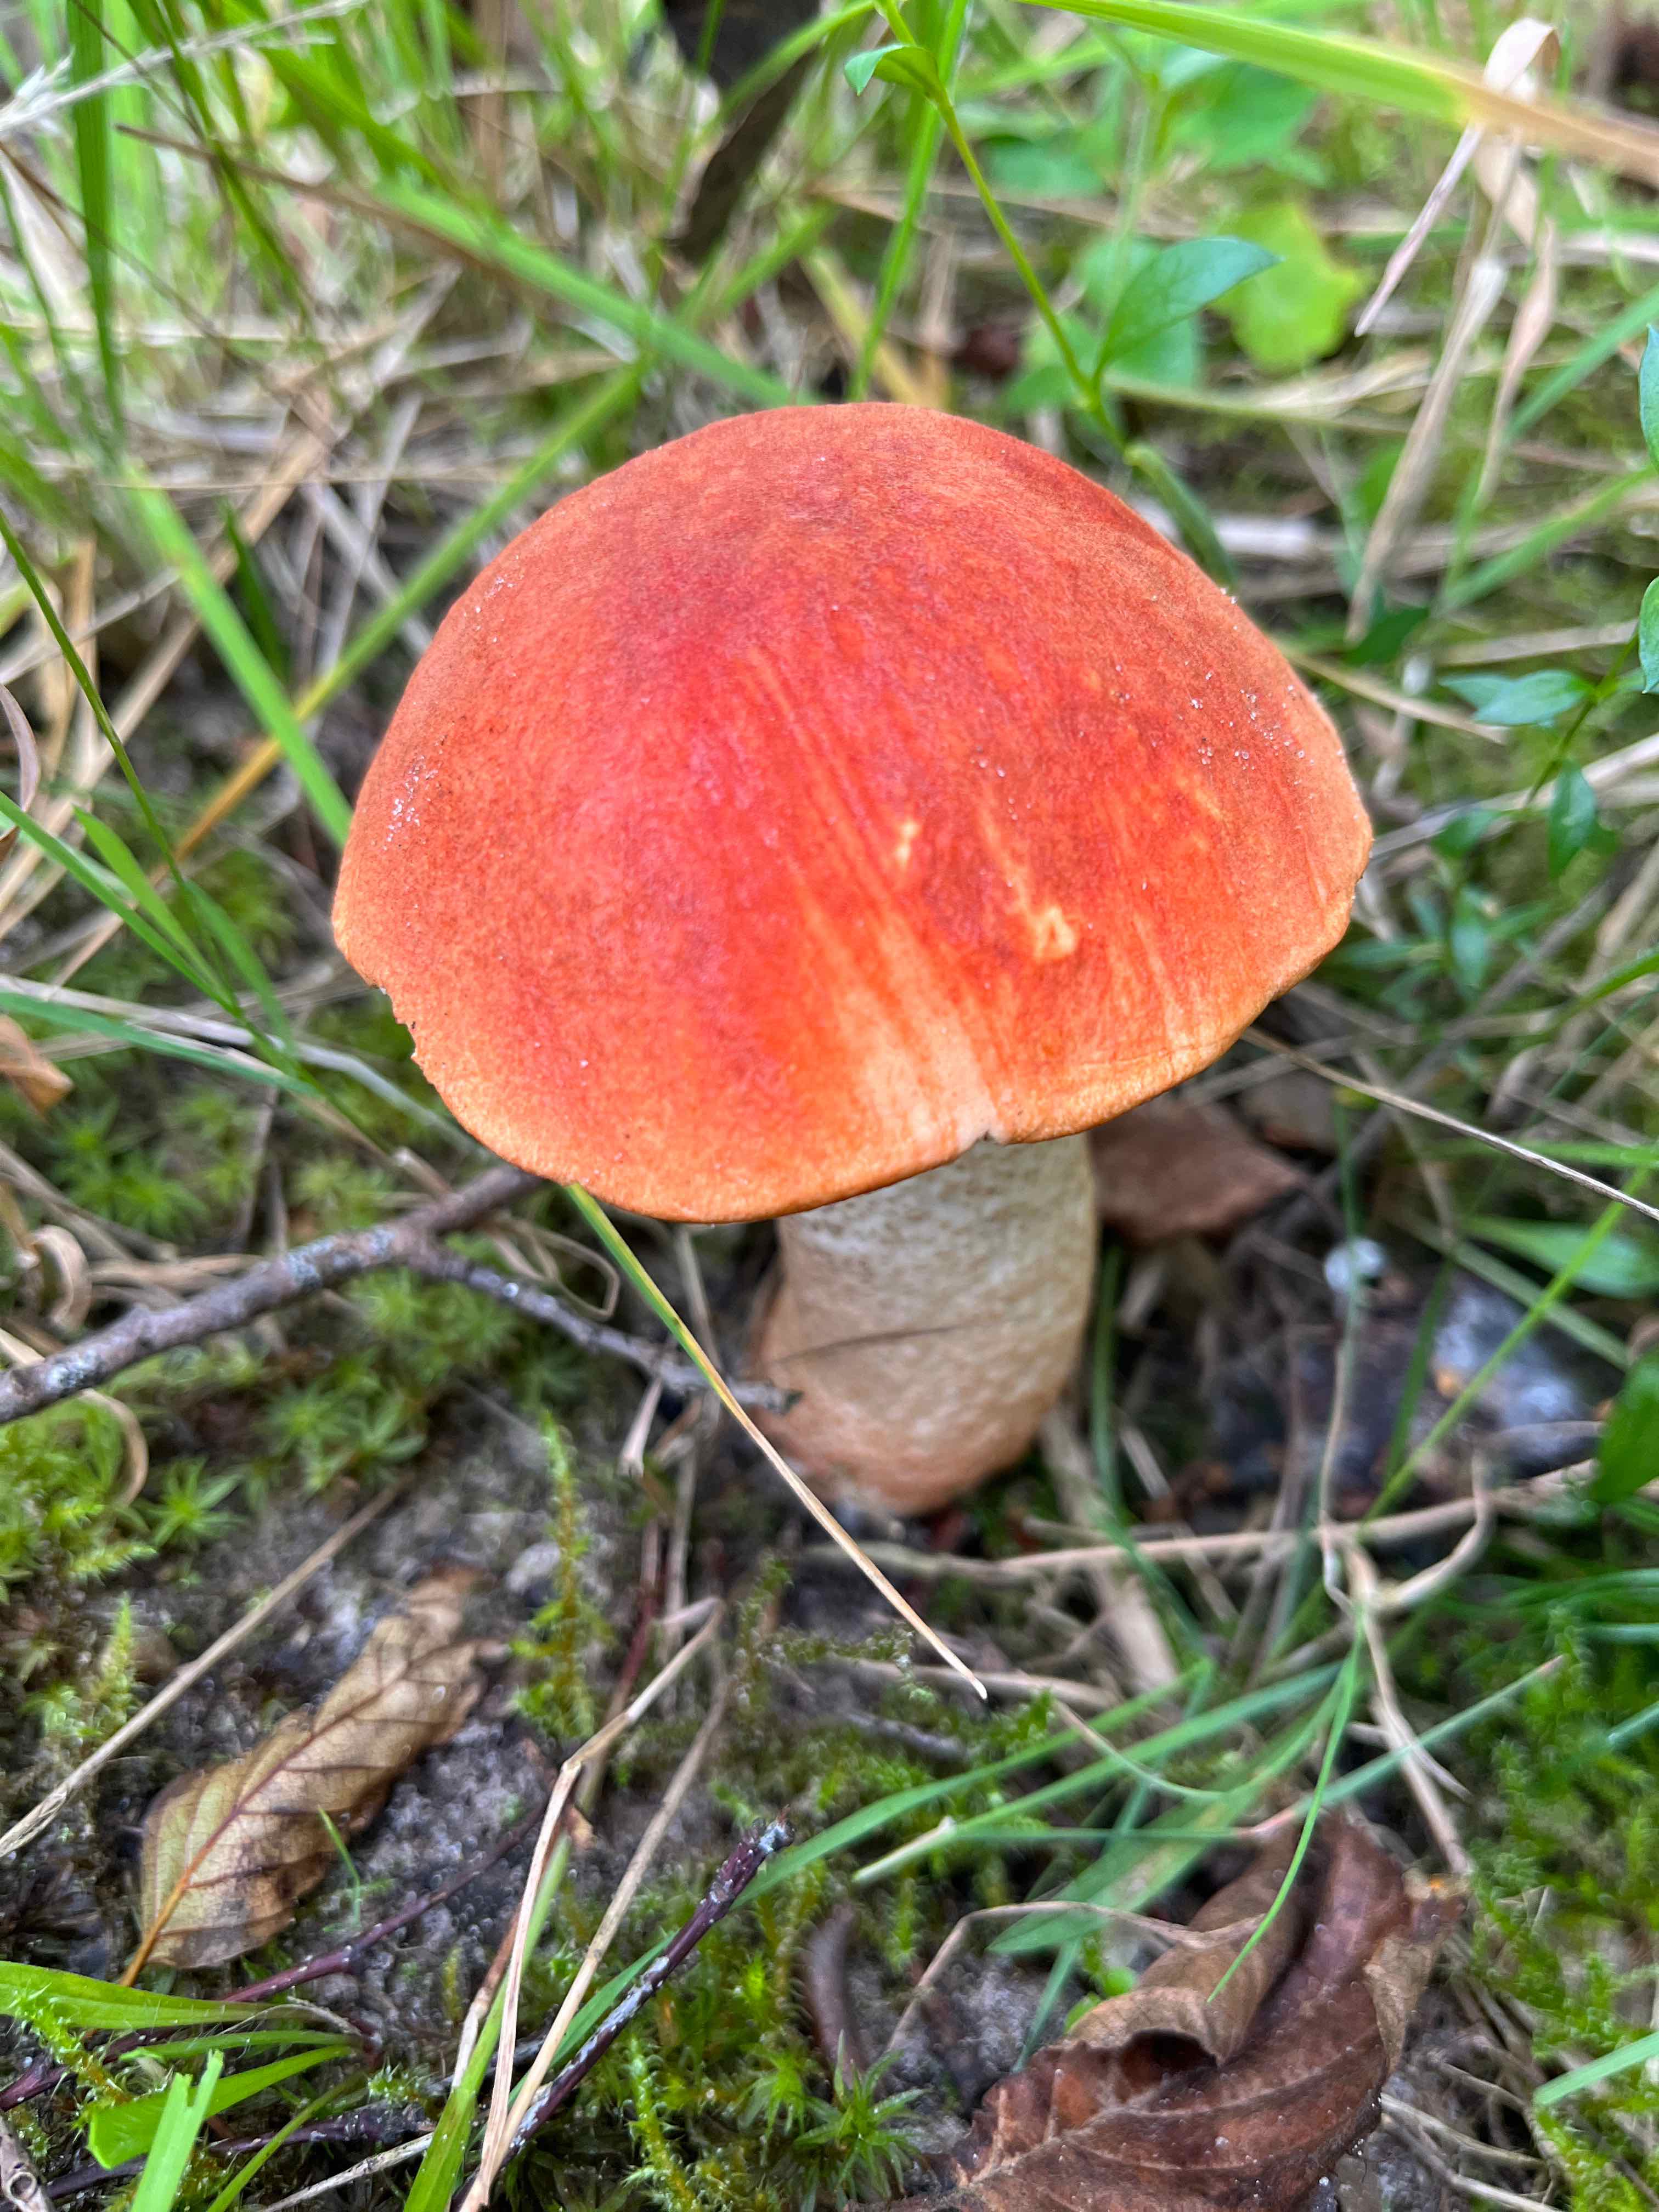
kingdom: Fungi
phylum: Basidiomycota
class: Agaricomycetes
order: Boletales
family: Boletaceae
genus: Leccinum
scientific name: Leccinum aurantiacum
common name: rustrød skælrørhat
